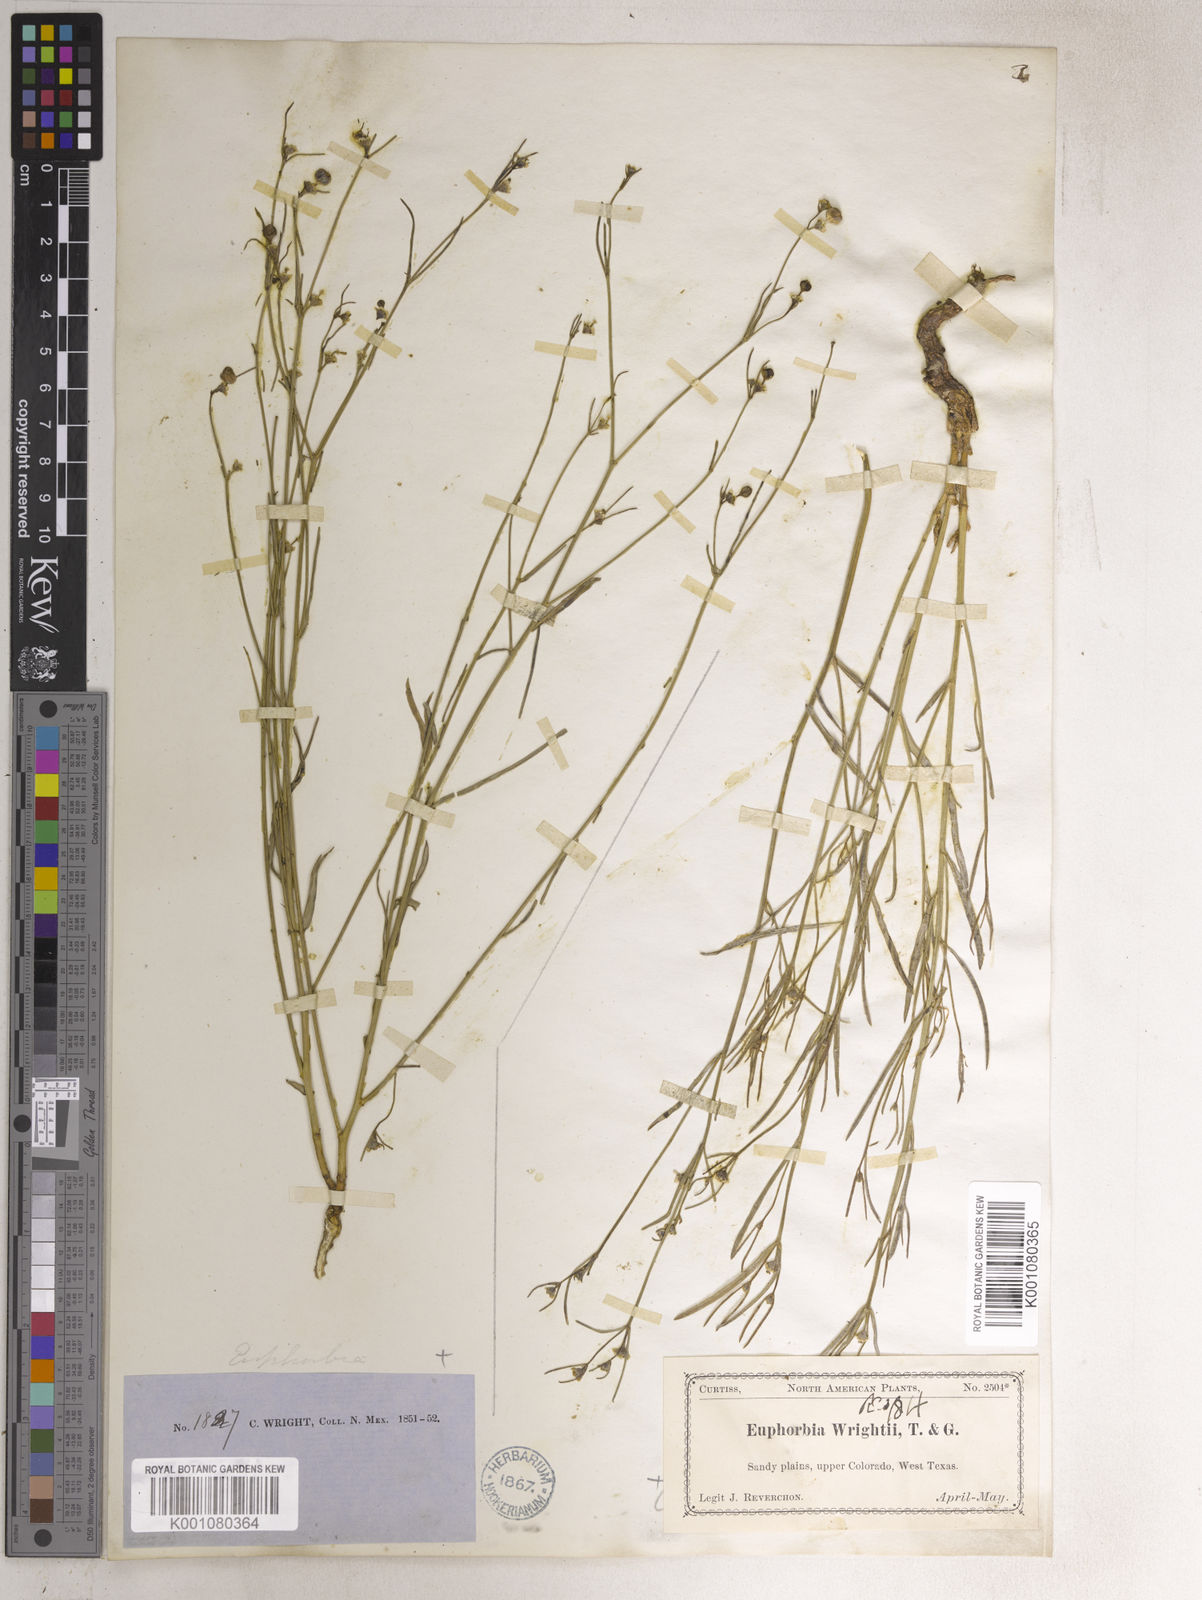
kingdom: Plantae
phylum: Tracheophyta
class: Magnoliopsida
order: Malpighiales
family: Euphorbiaceae
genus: Euphorbia
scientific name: Euphorbia wrightii
